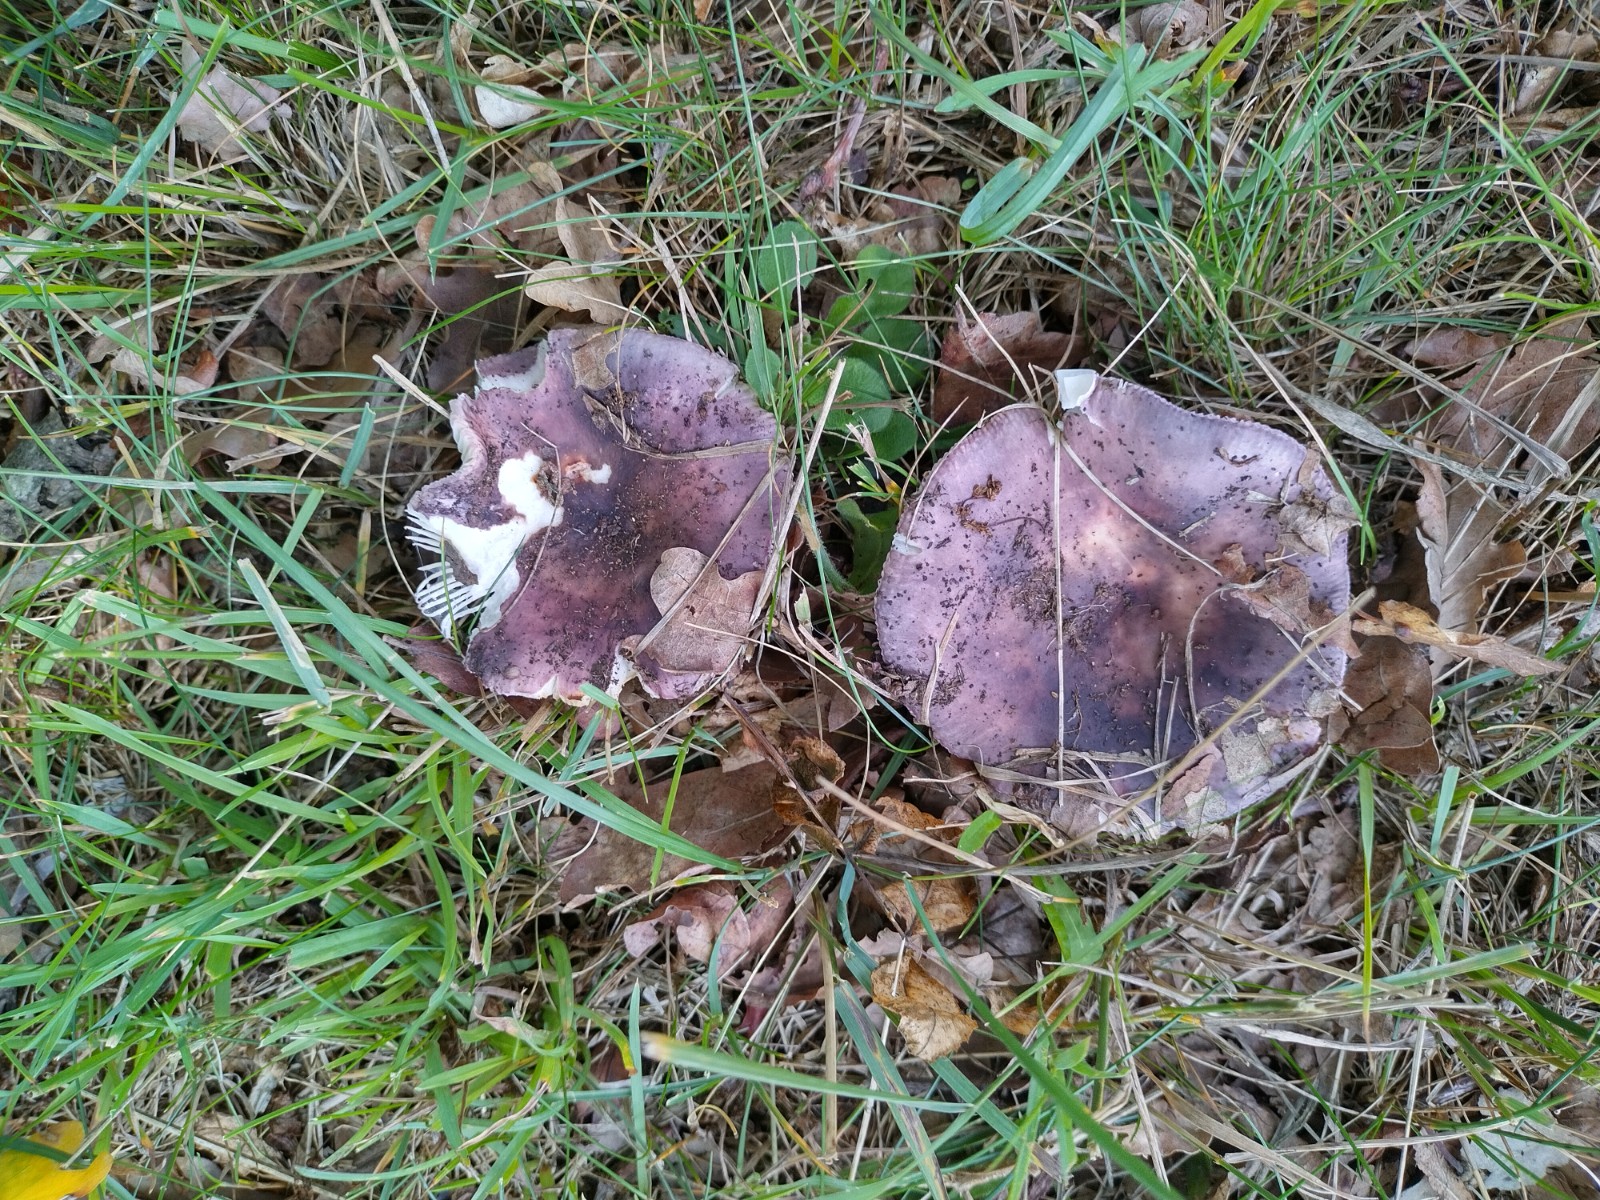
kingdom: Fungi
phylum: Basidiomycota
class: Agaricomycetes
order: Russulales
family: Russulaceae
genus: Russula
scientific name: Russula grisea
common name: grålig skørhat
